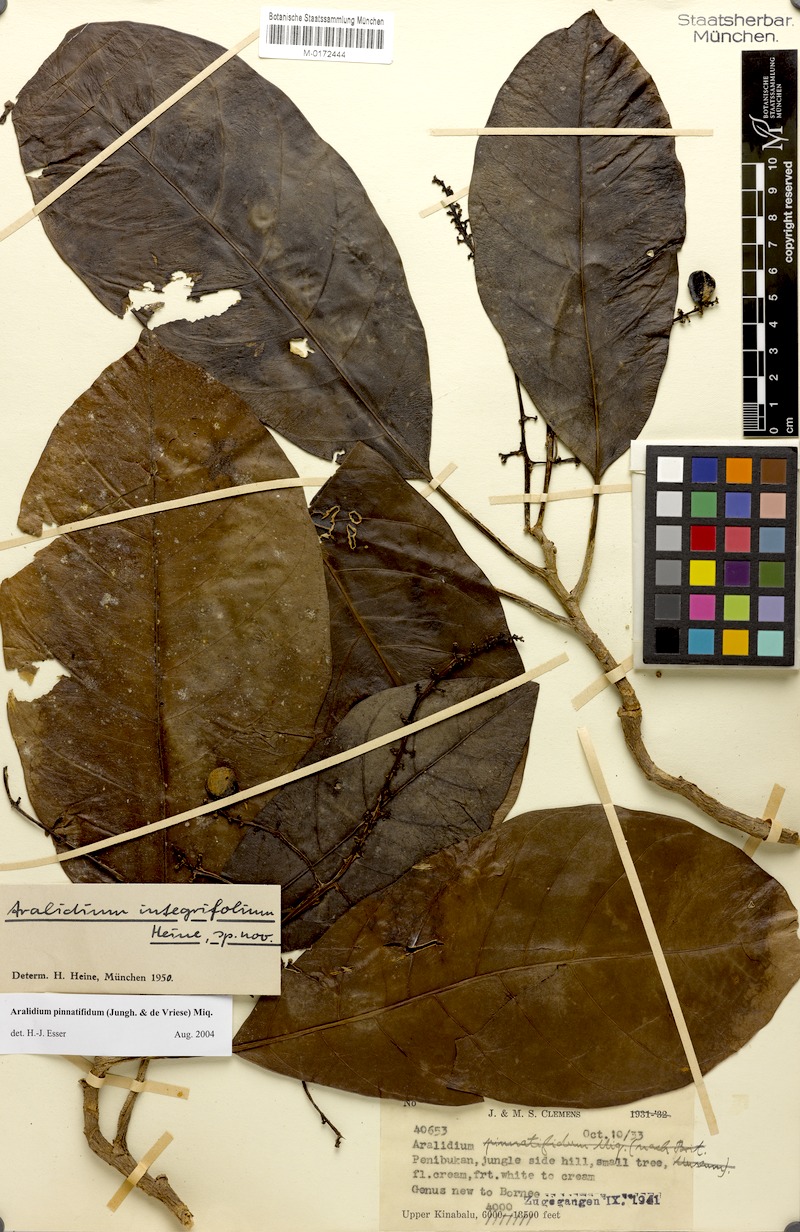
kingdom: Plantae
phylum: Tracheophyta
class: Magnoliopsida
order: Apiales
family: Torricelliaceae
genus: Aralidium
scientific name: Aralidium pinnatifidum
